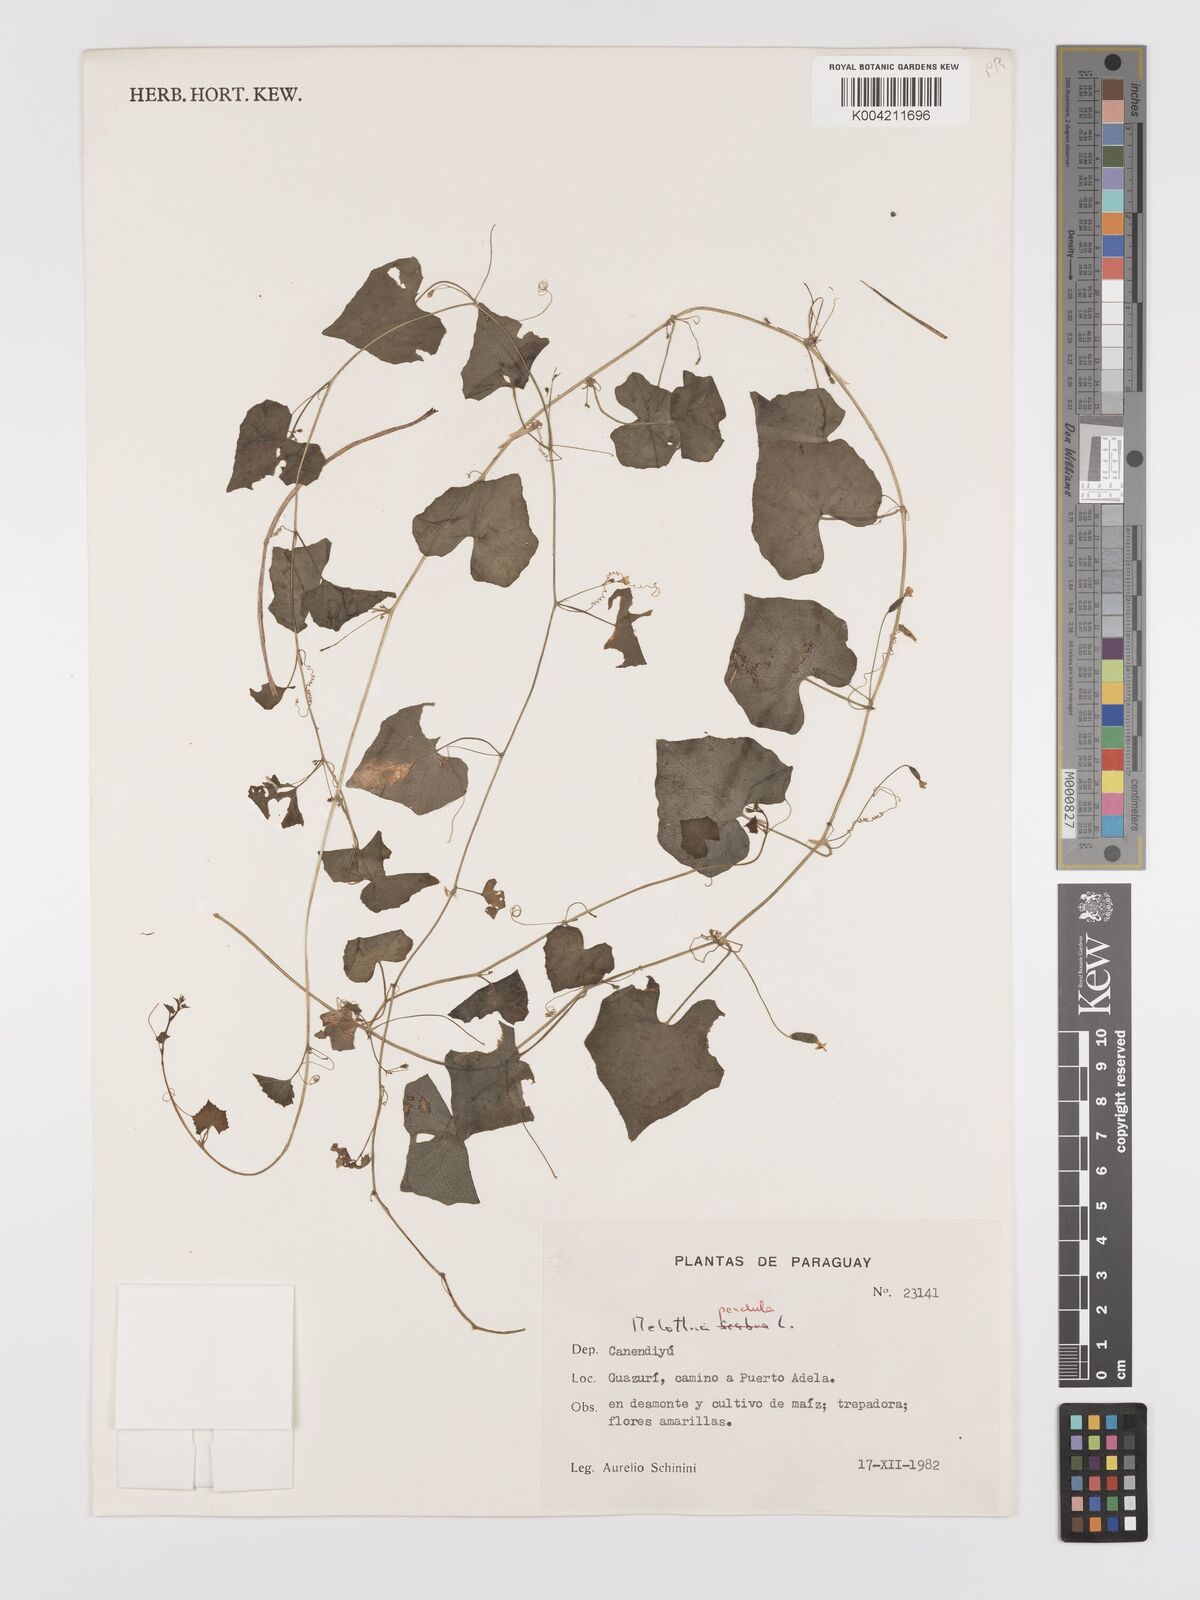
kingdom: Plantae
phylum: Tracheophyta
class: Magnoliopsida
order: Cucurbitales
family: Cucurbitaceae
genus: Melothria
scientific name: Melothria
